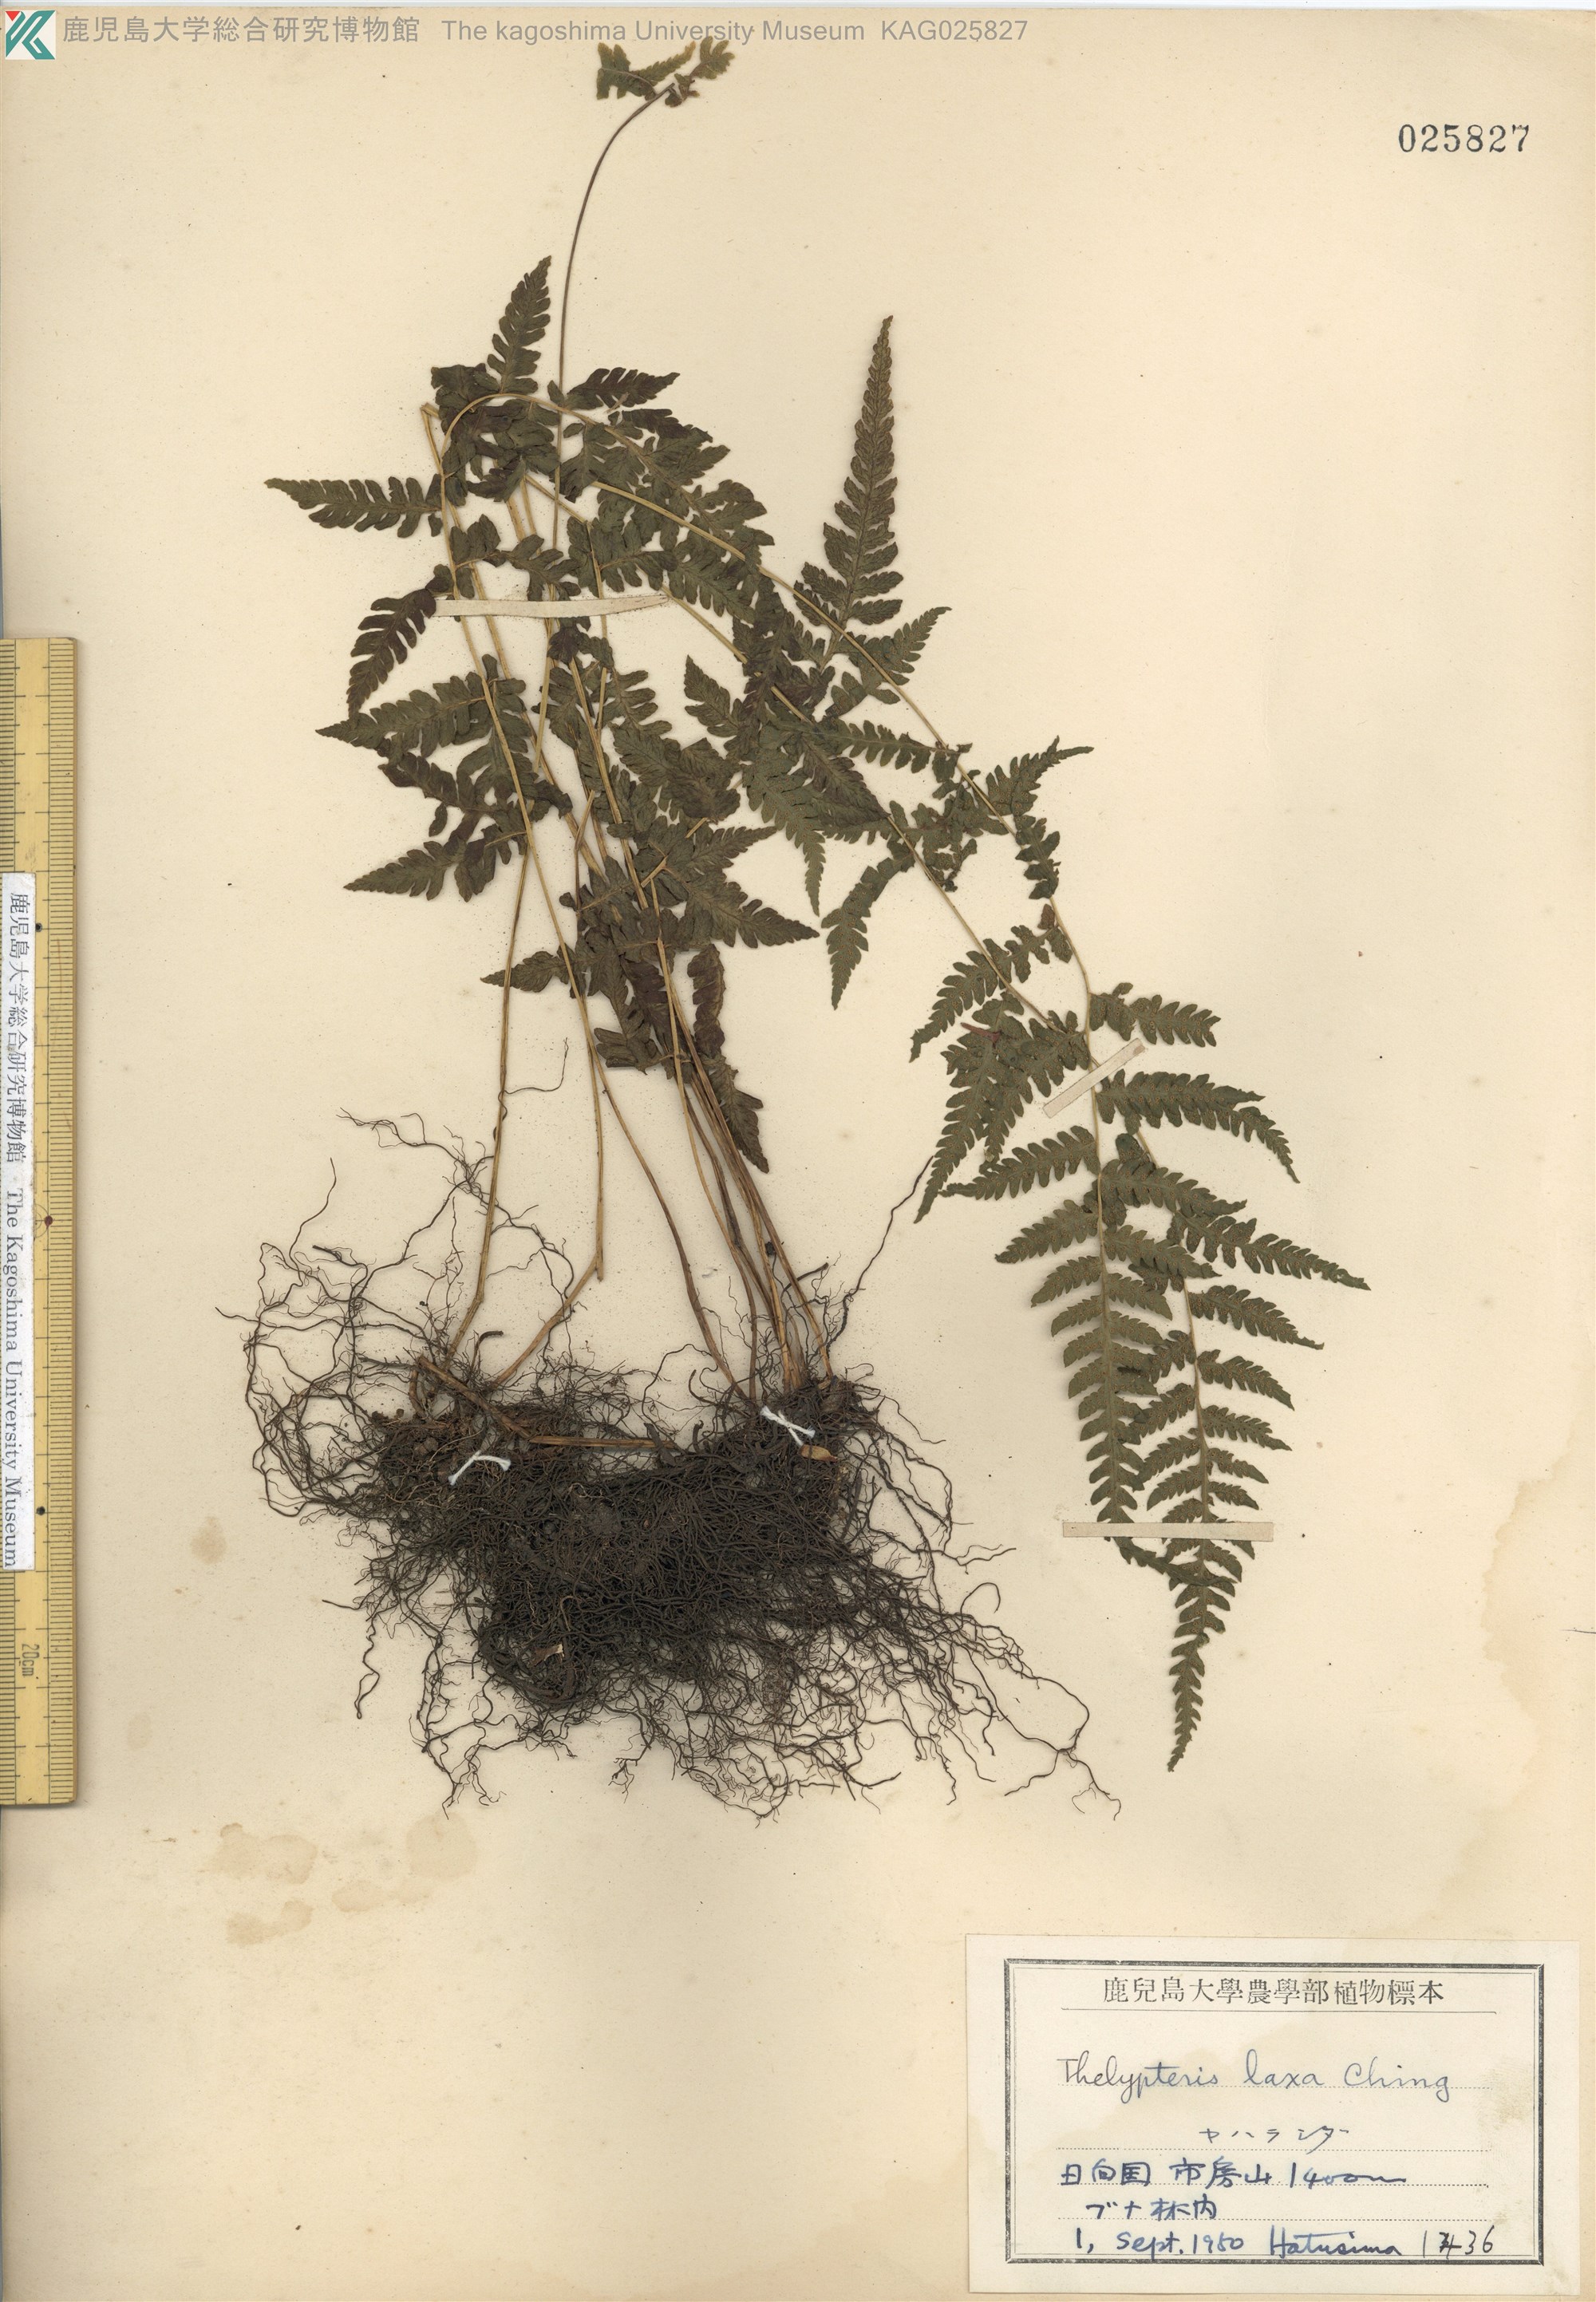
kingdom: Plantae
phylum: Tracheophyta
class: Polypodiopsida
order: Polypodiales
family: Thelypteridaceae
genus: Metathelypteris
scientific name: Metathelypteris laxa
